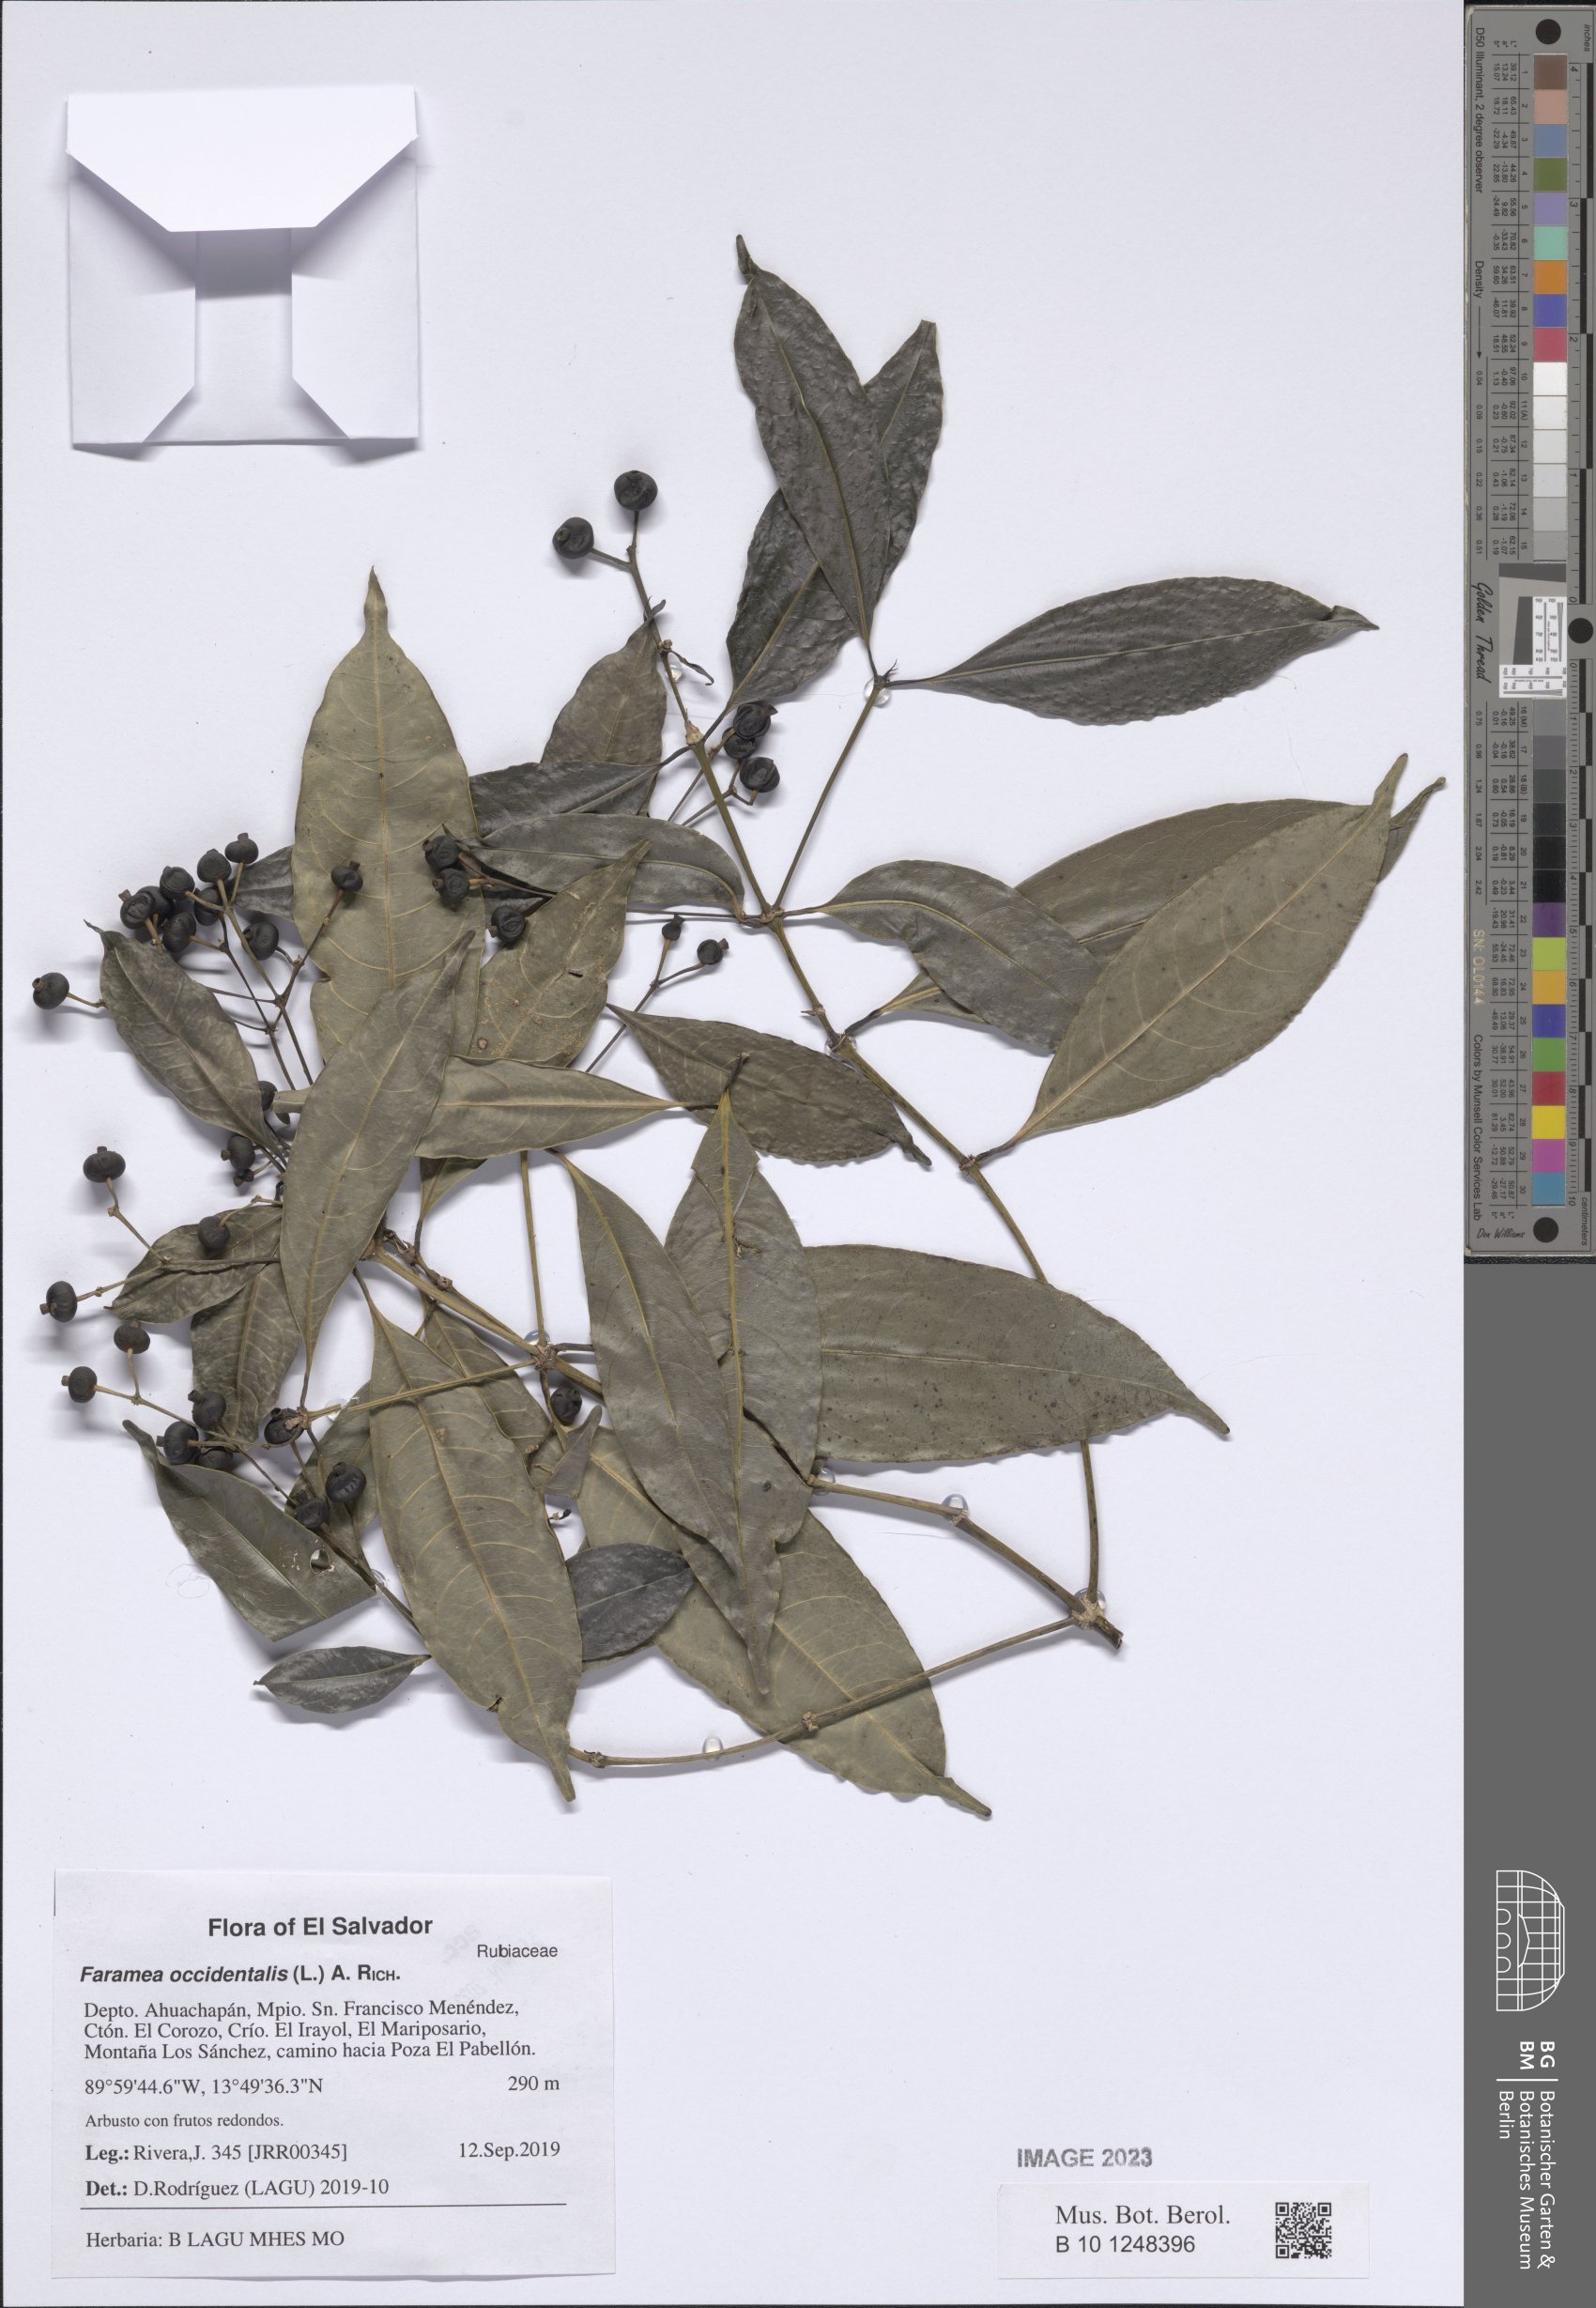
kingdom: Plantae
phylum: Tracheophyta
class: Magnoliopsida
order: Gentianales
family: Rubiaceae
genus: Faramea
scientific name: Faramea occidentalis
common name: False coffee
